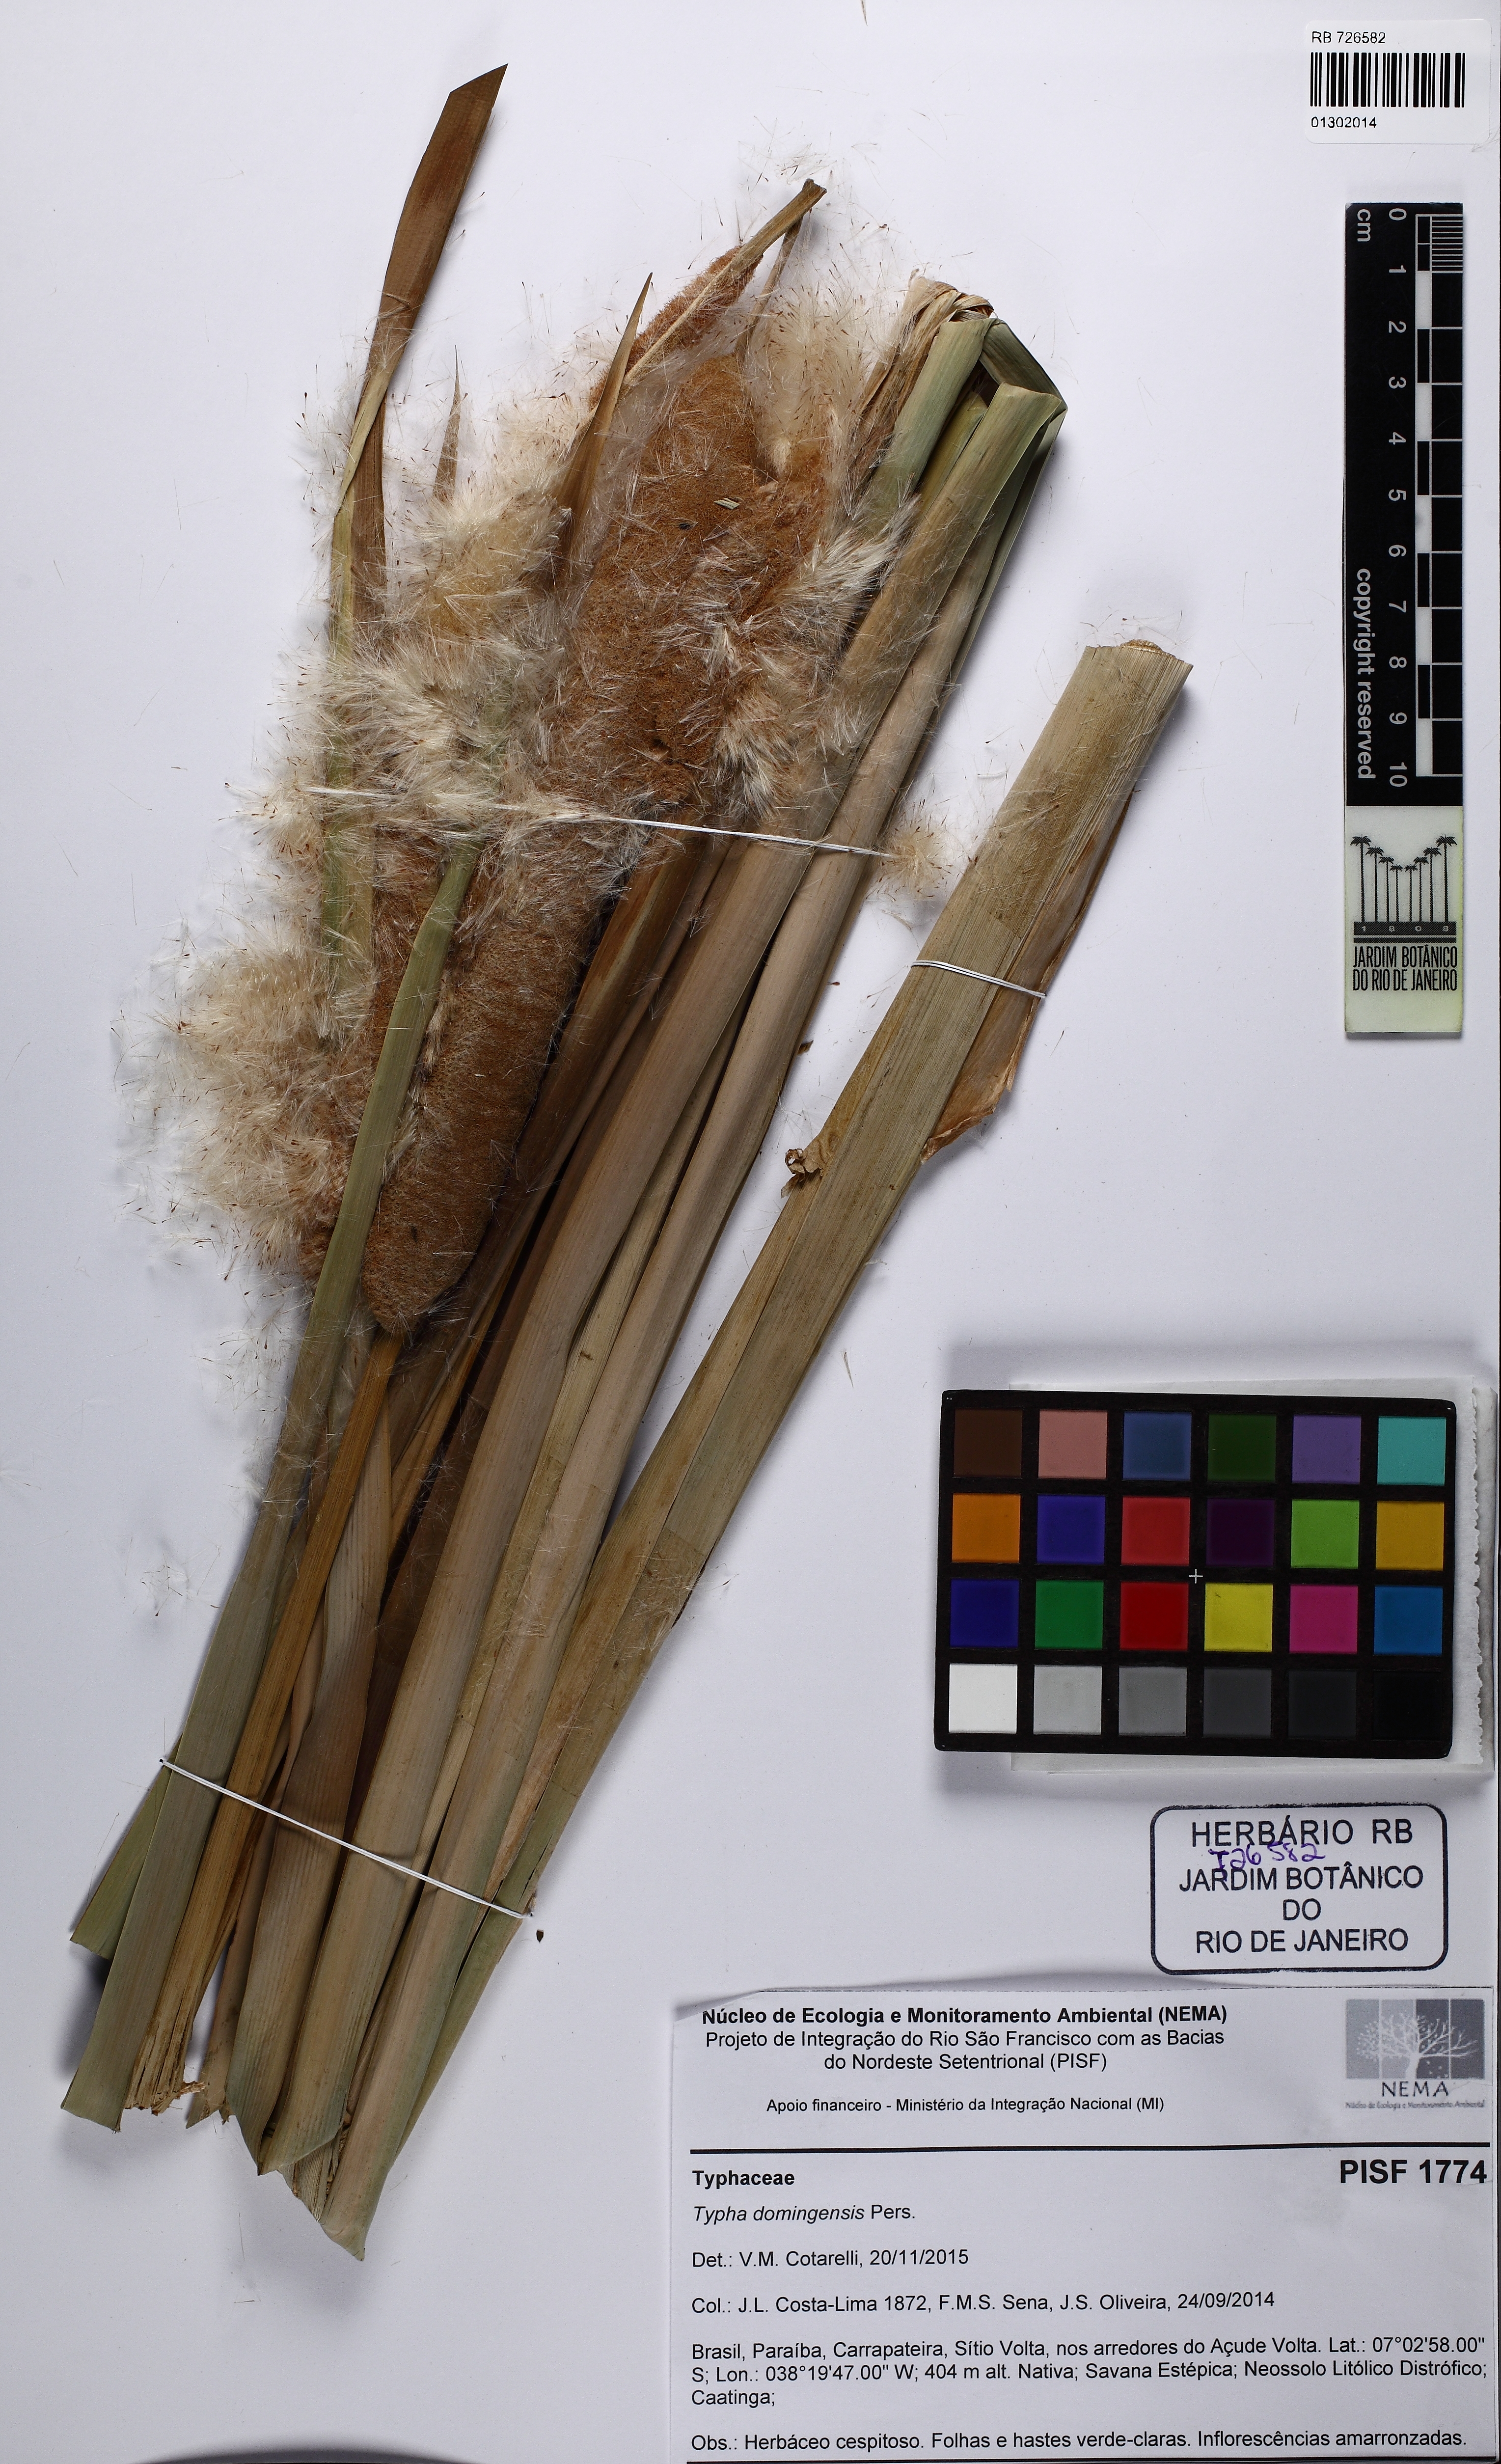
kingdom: Plantae
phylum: Tracheophyta
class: Liliopsida
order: Poales
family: Typhaceae
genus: Typha
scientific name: Typha domingensis
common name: Southern cattail
